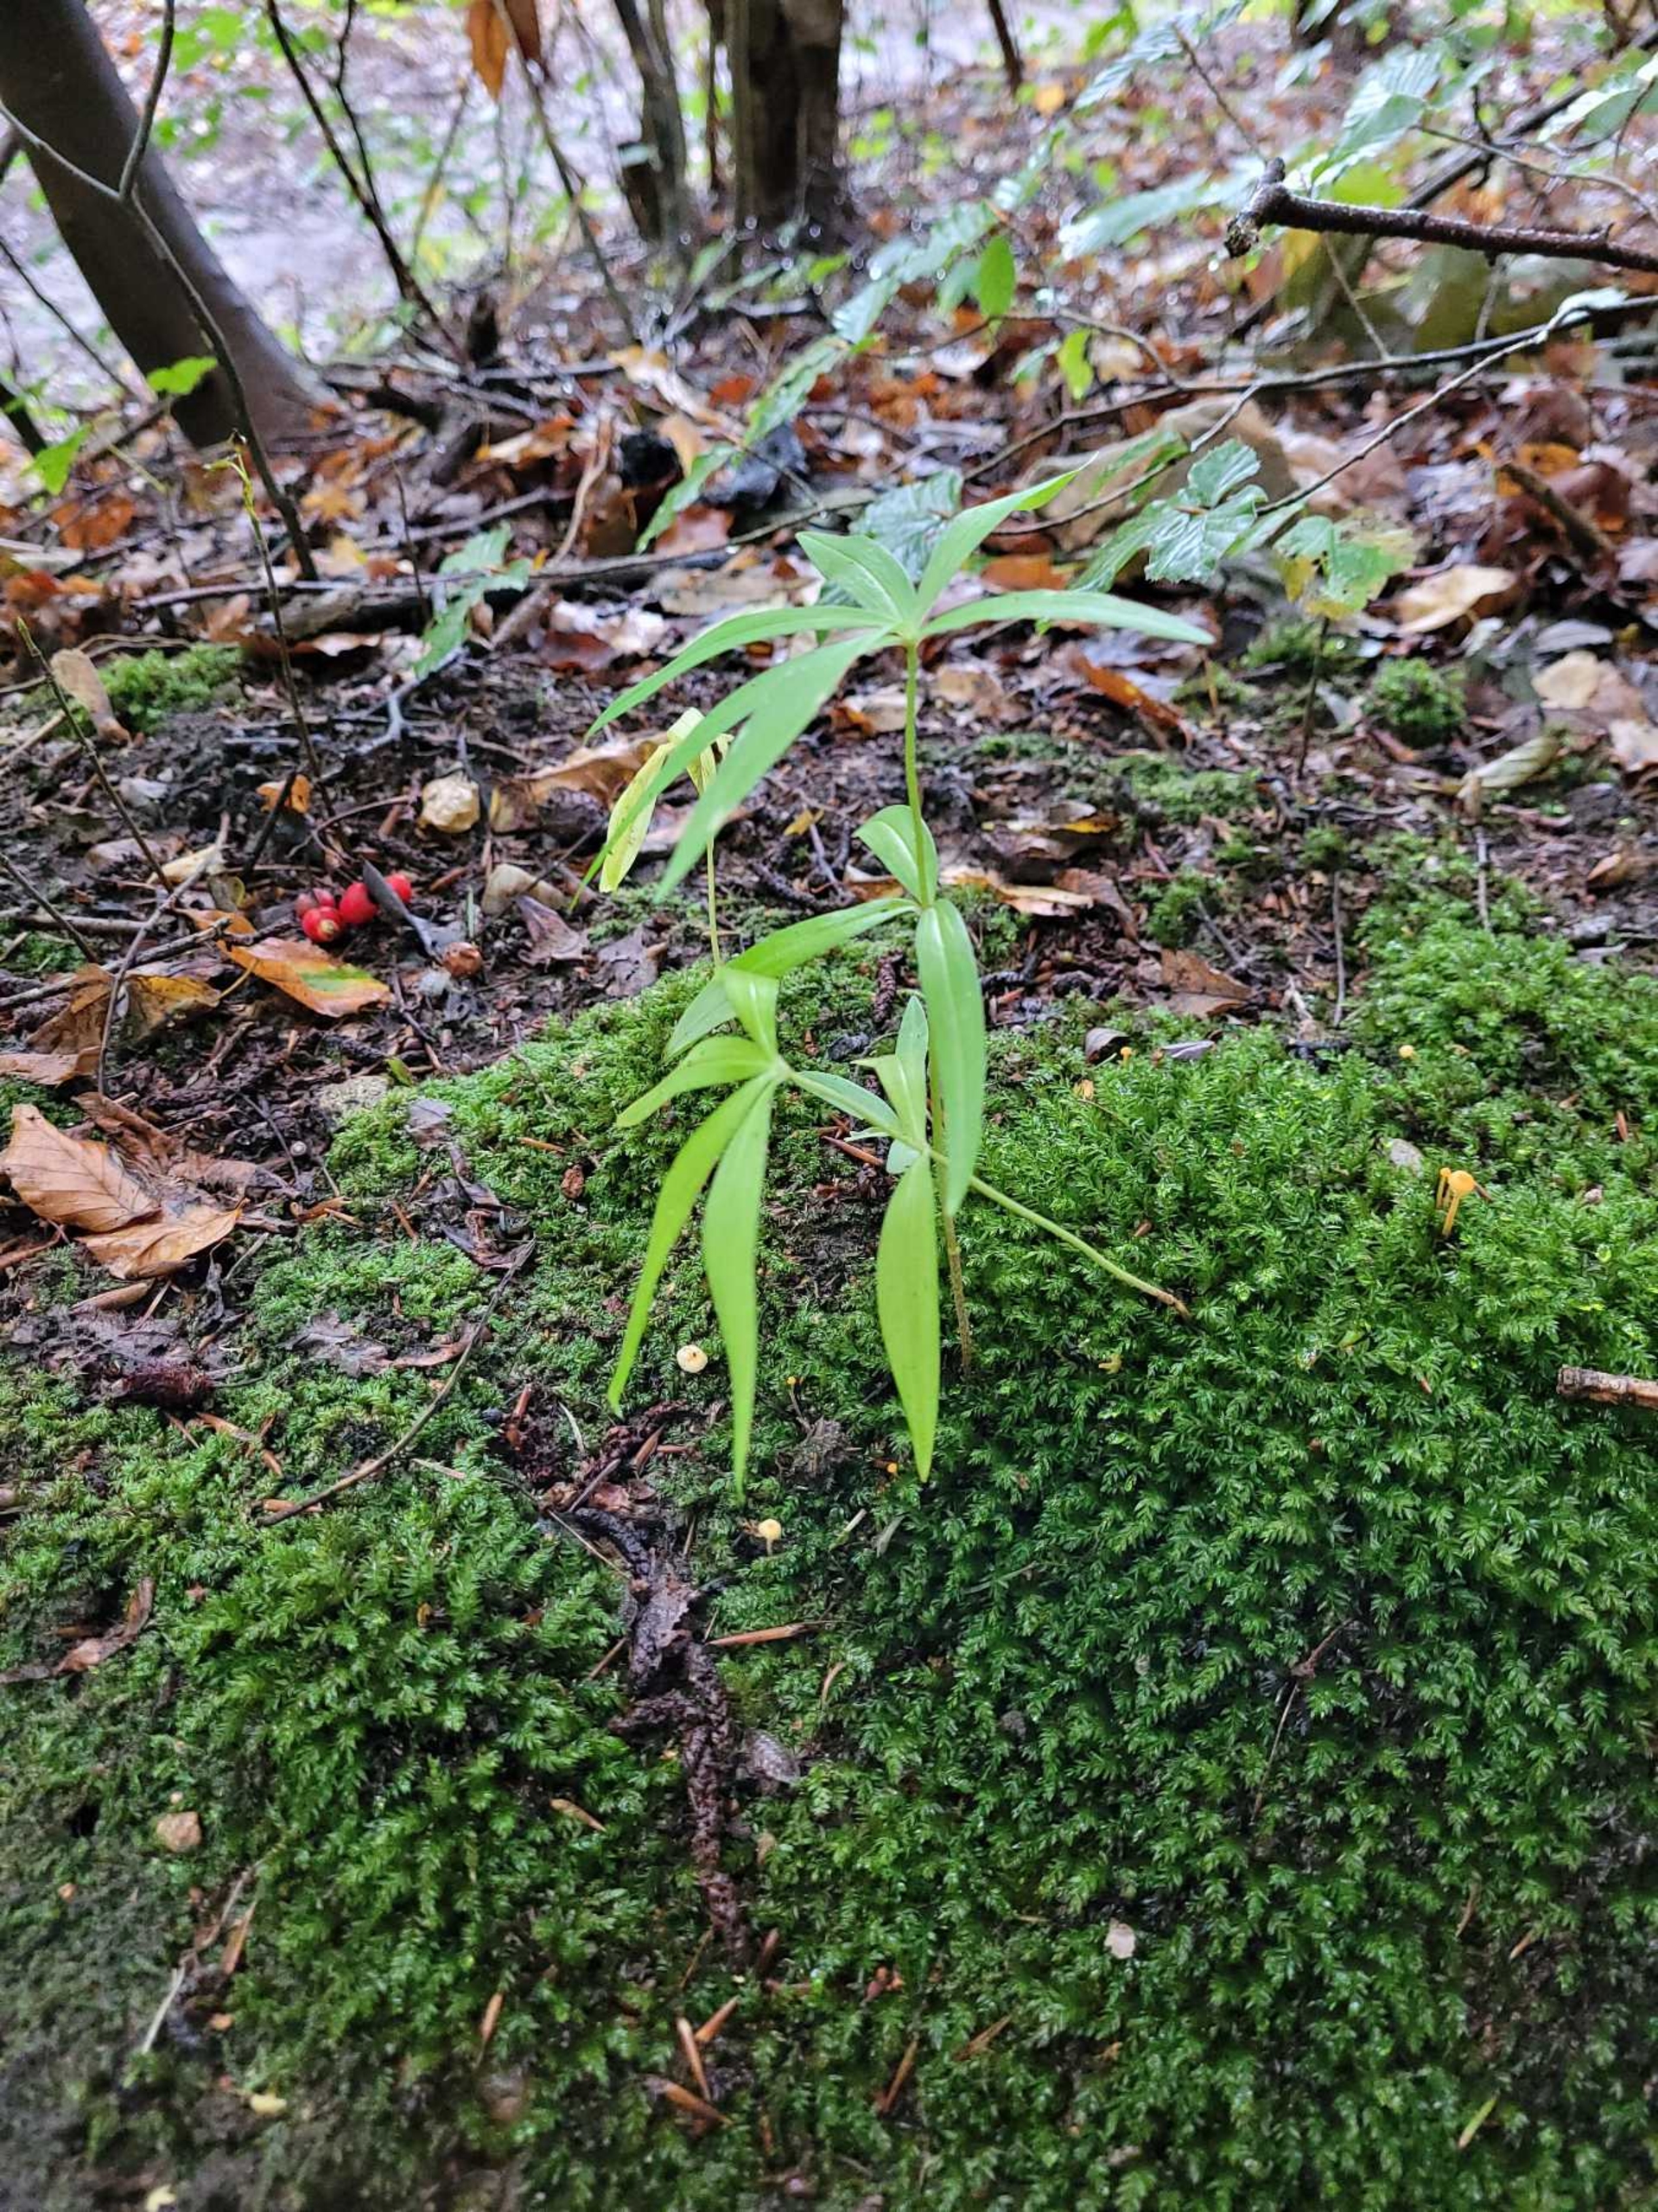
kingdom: Plantae
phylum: Tracheophyta
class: Liliopsida
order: Asparagales
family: Asparagaceae
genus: Polygonatum
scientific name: Polygonatum verticillatum
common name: Krans-konval
